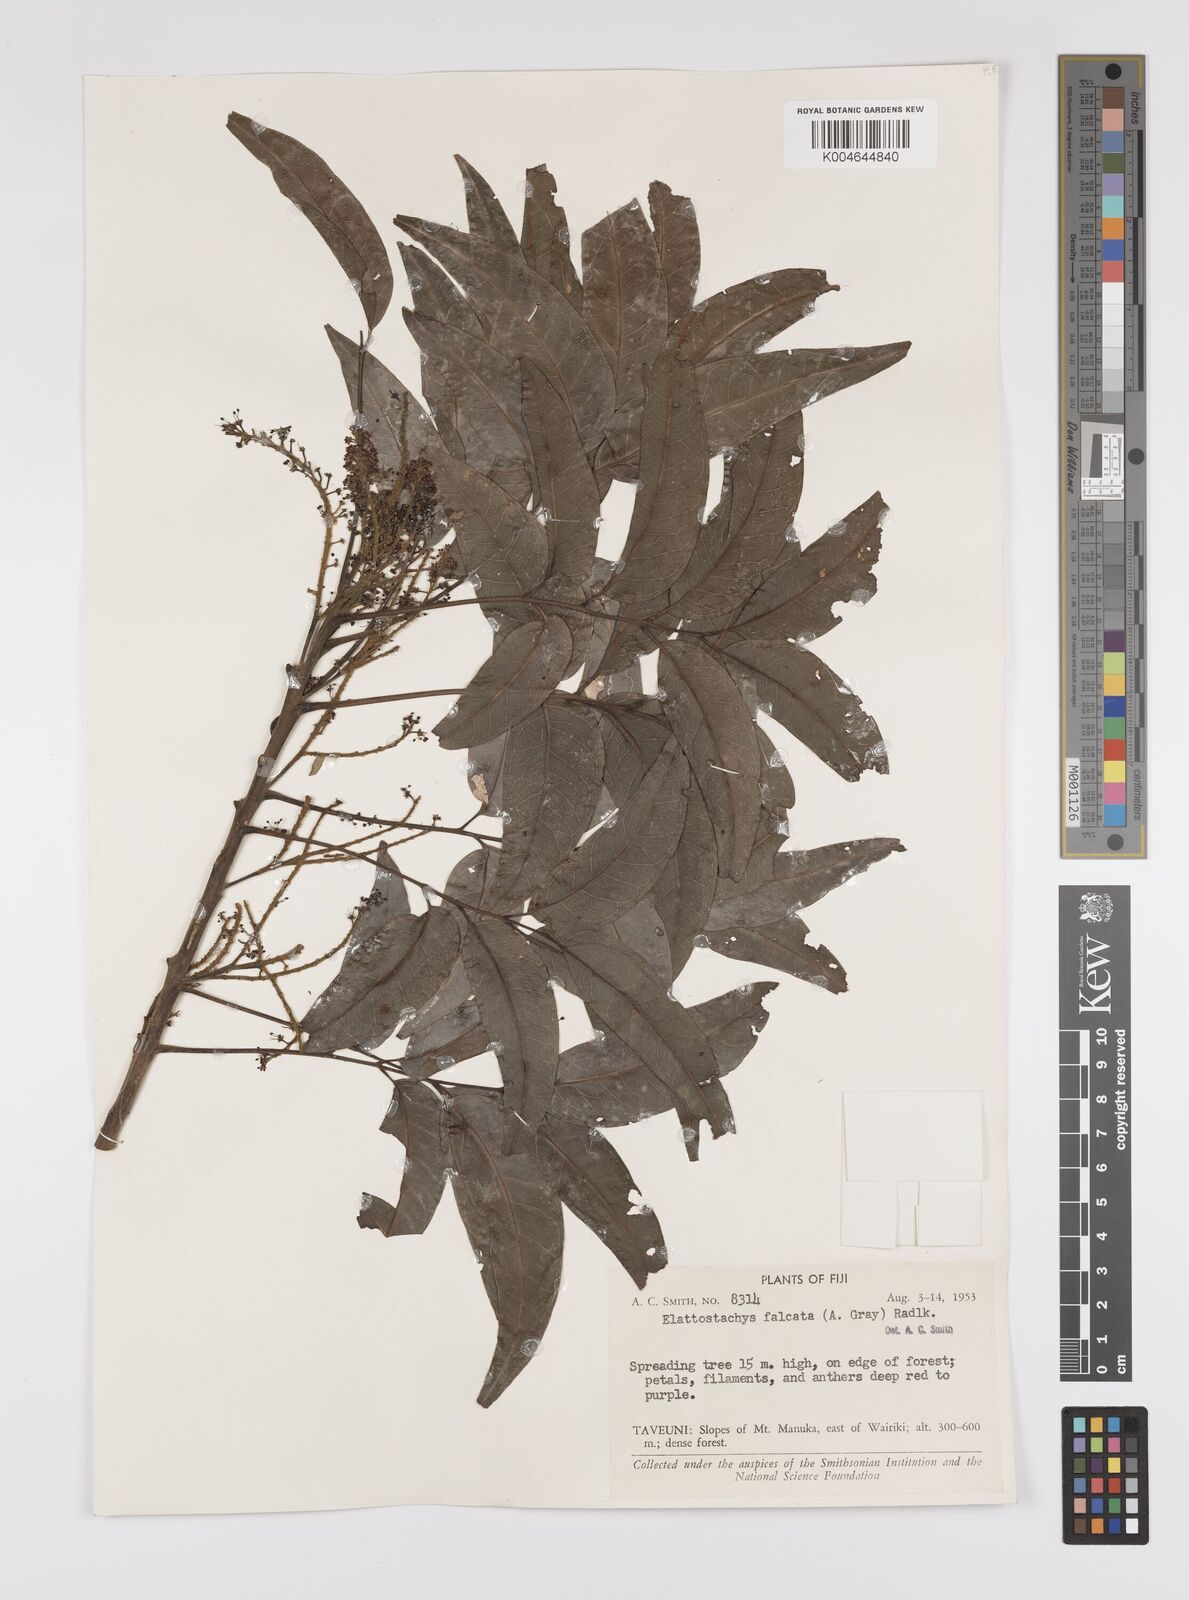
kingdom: Plantae
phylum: Tracheophyta
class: Magnoliopsida
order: Sapindales
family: Sapindaceae
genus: Elattostachys
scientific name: Elattostachys apetala
